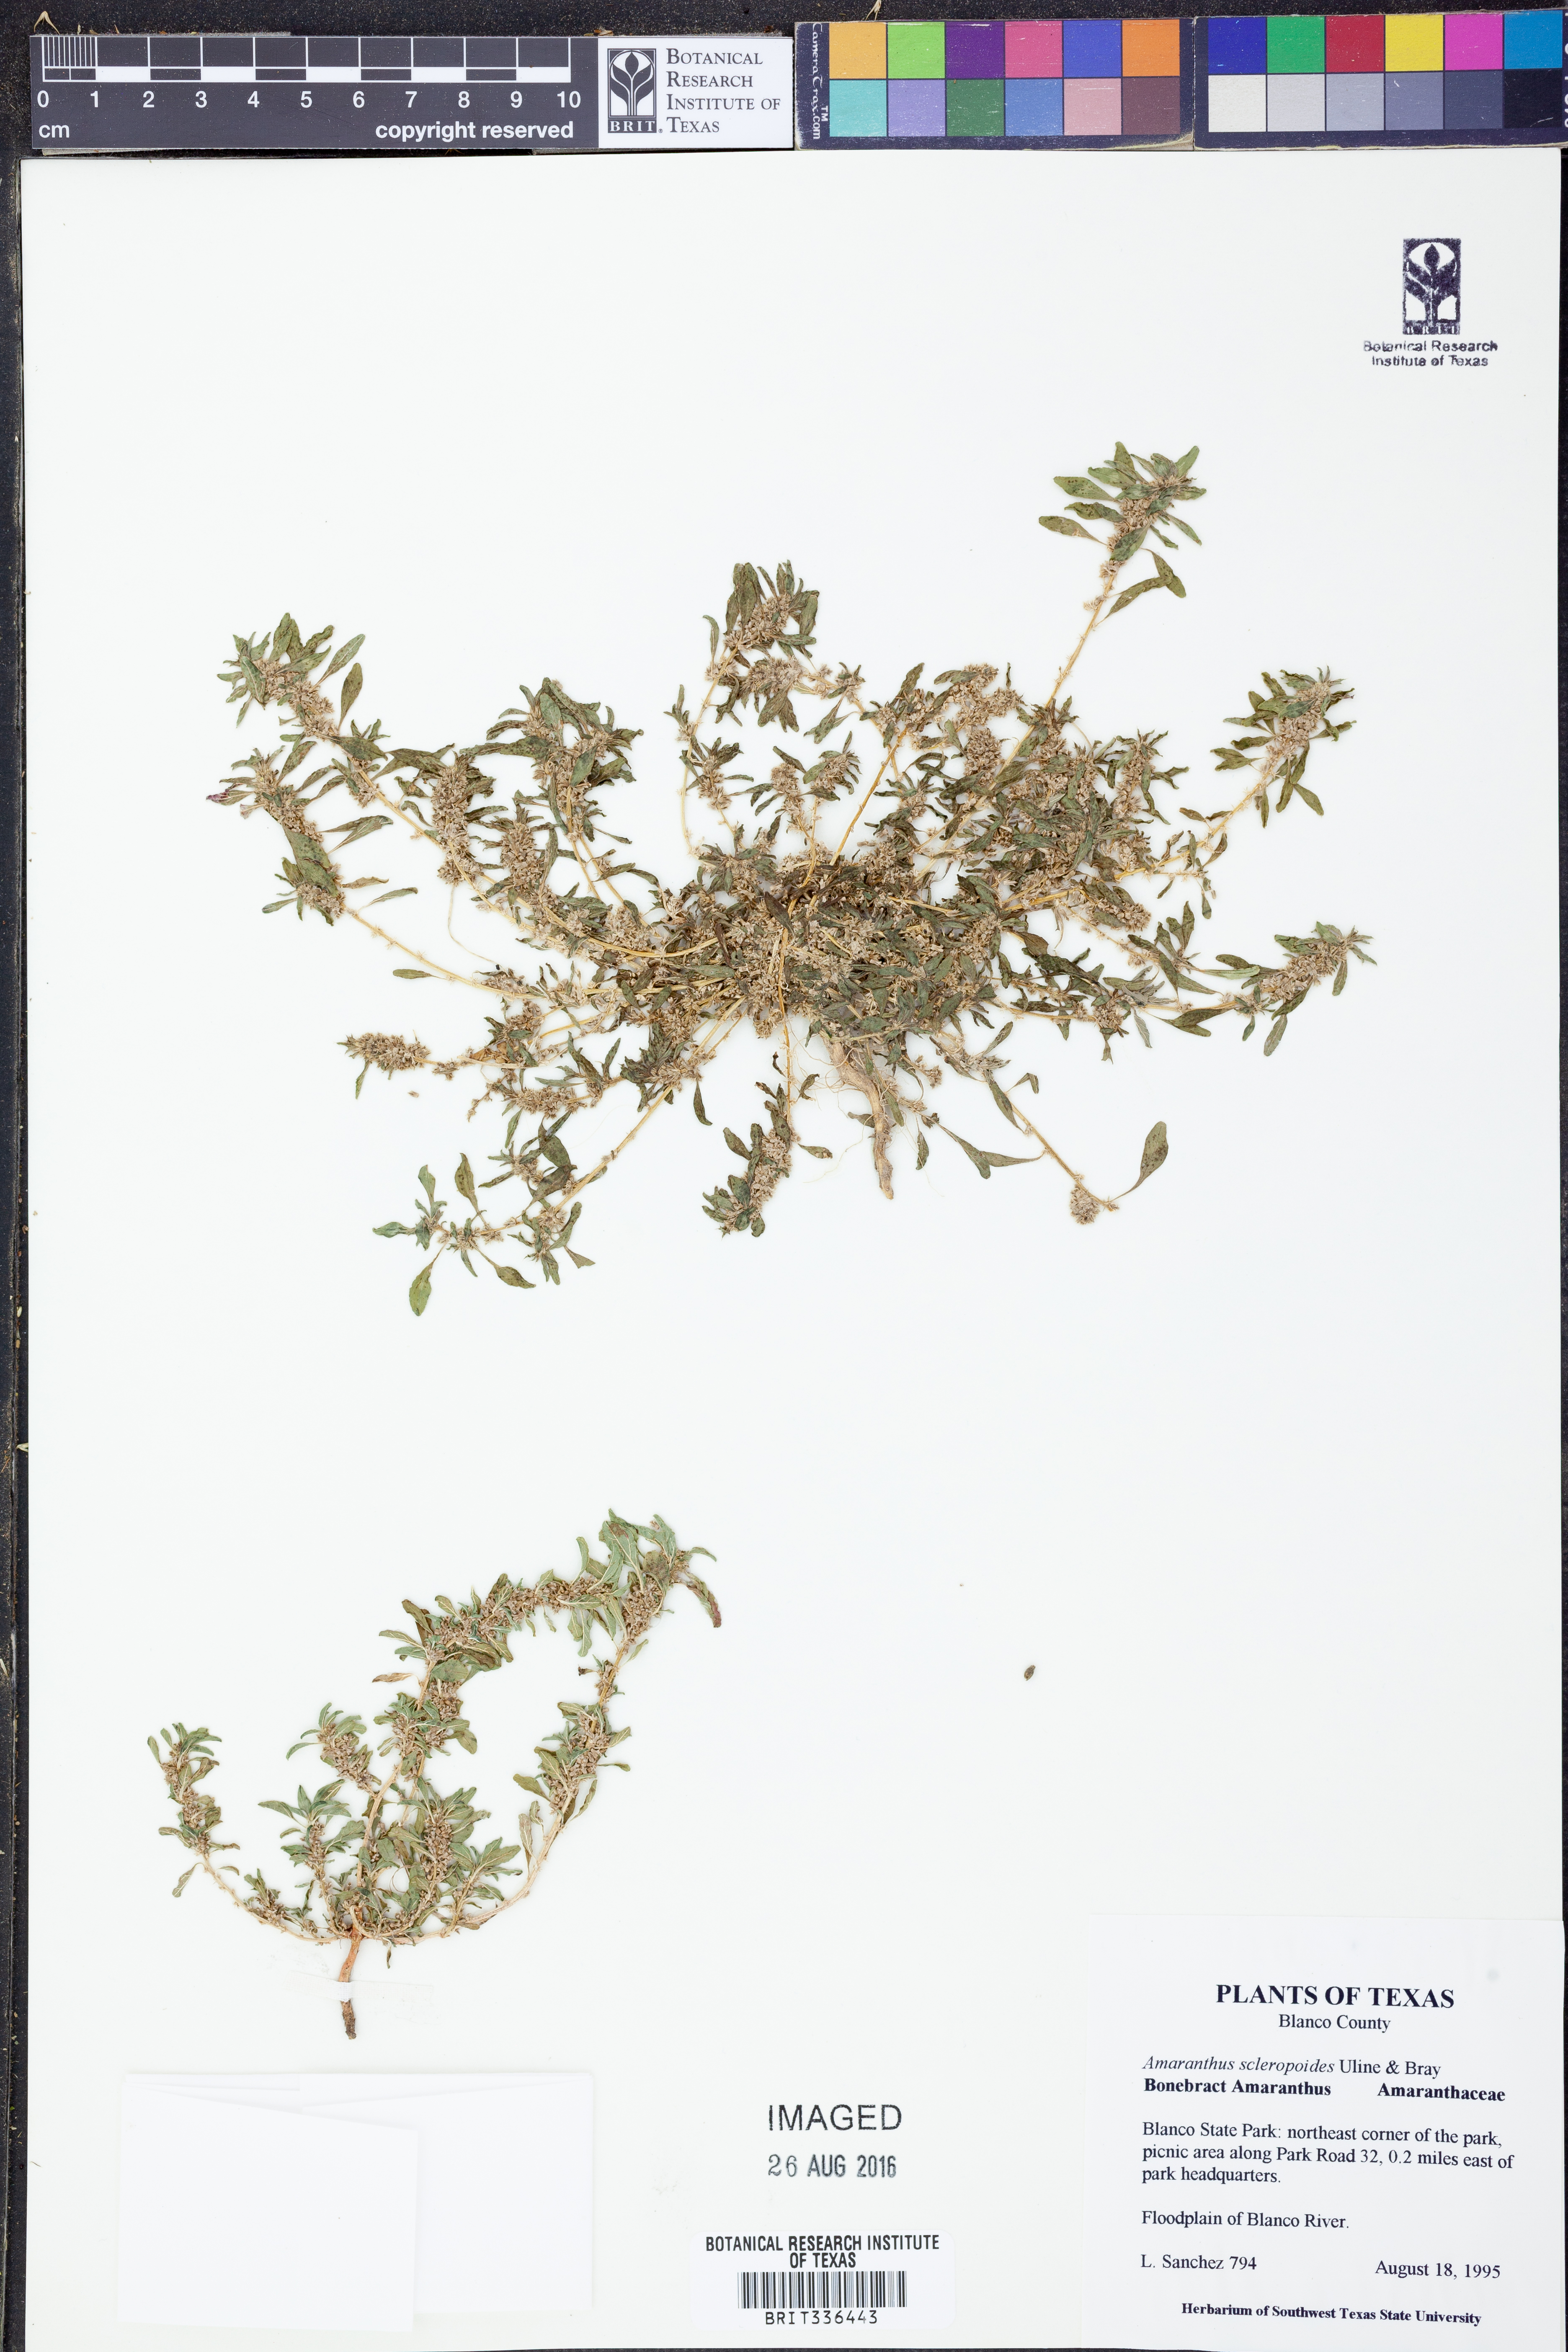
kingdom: Plantae
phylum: Tracheophyta
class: Magnoliopsida
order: Caryophyllales
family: Amaranthaceae
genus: Amaranthus
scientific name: Amaranthus polygonoides
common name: Tropical amaranth
